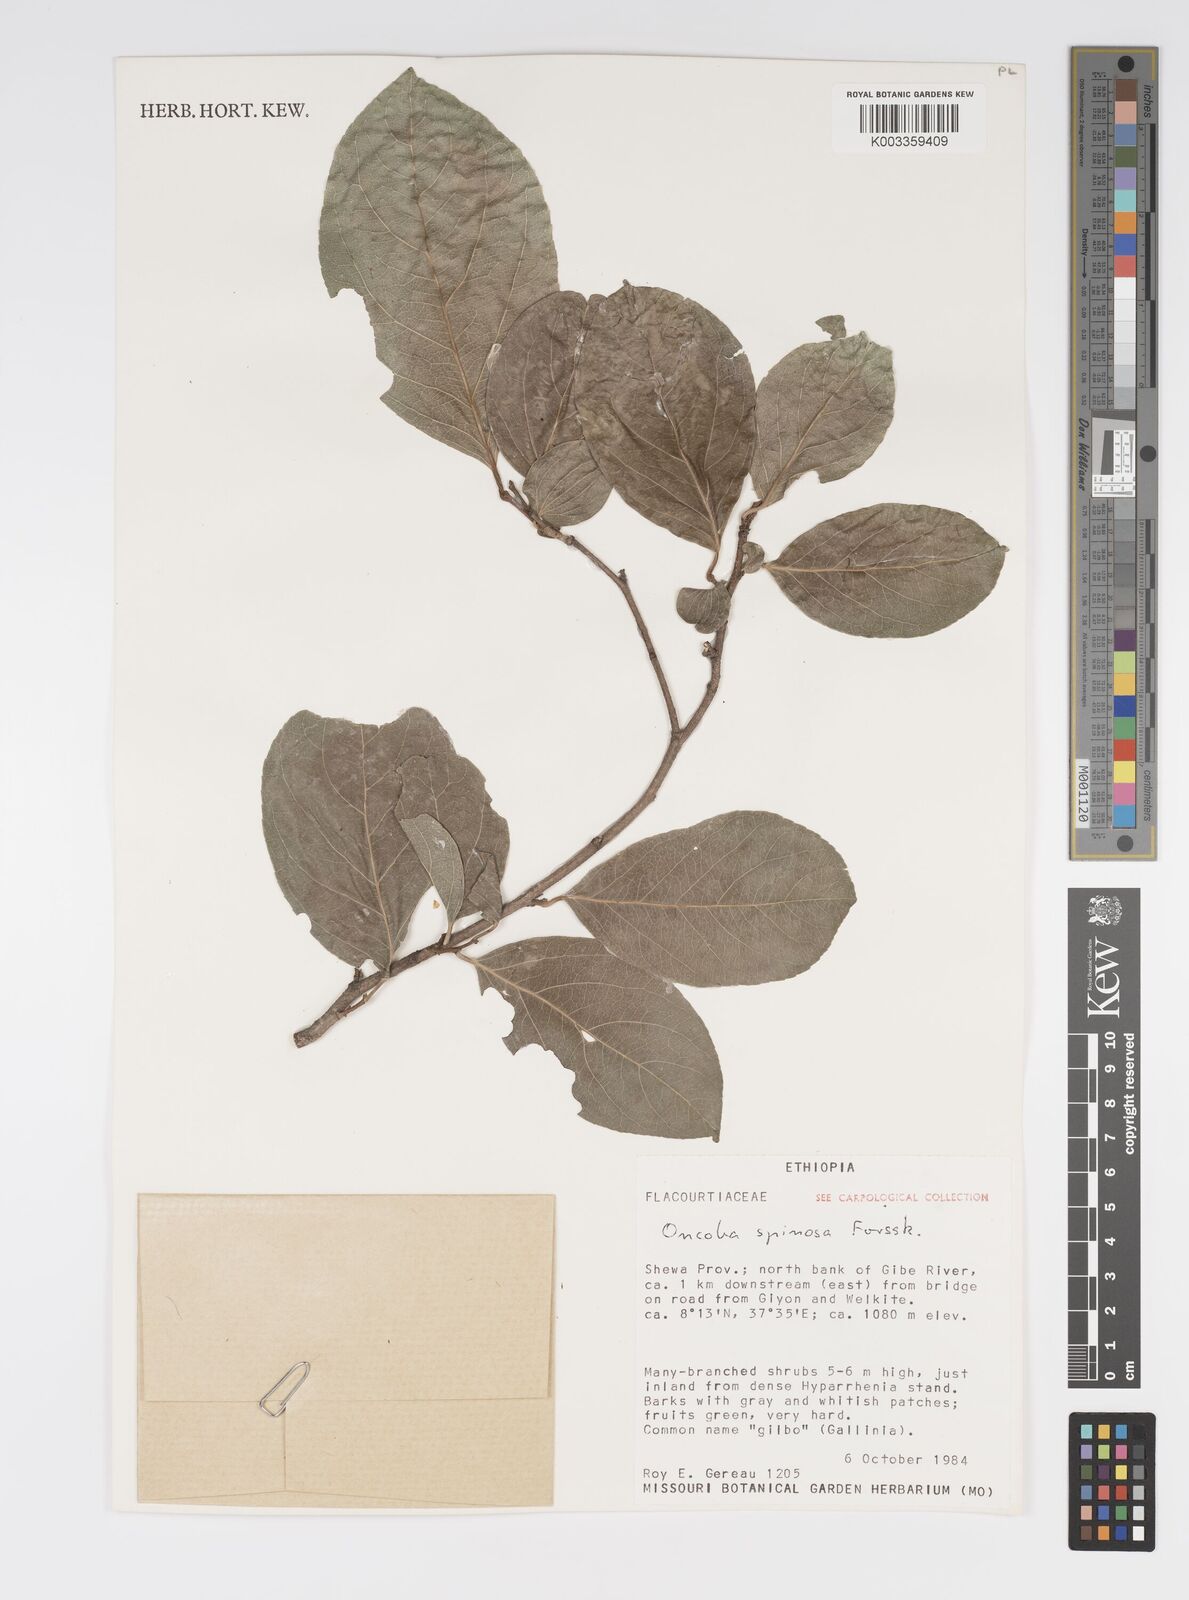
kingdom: Plantae
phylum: Tracheophyta
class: Magnoliopsida
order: Malpighiales
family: Salicaceae
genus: Oncoba
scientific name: Oncoba spinosa
